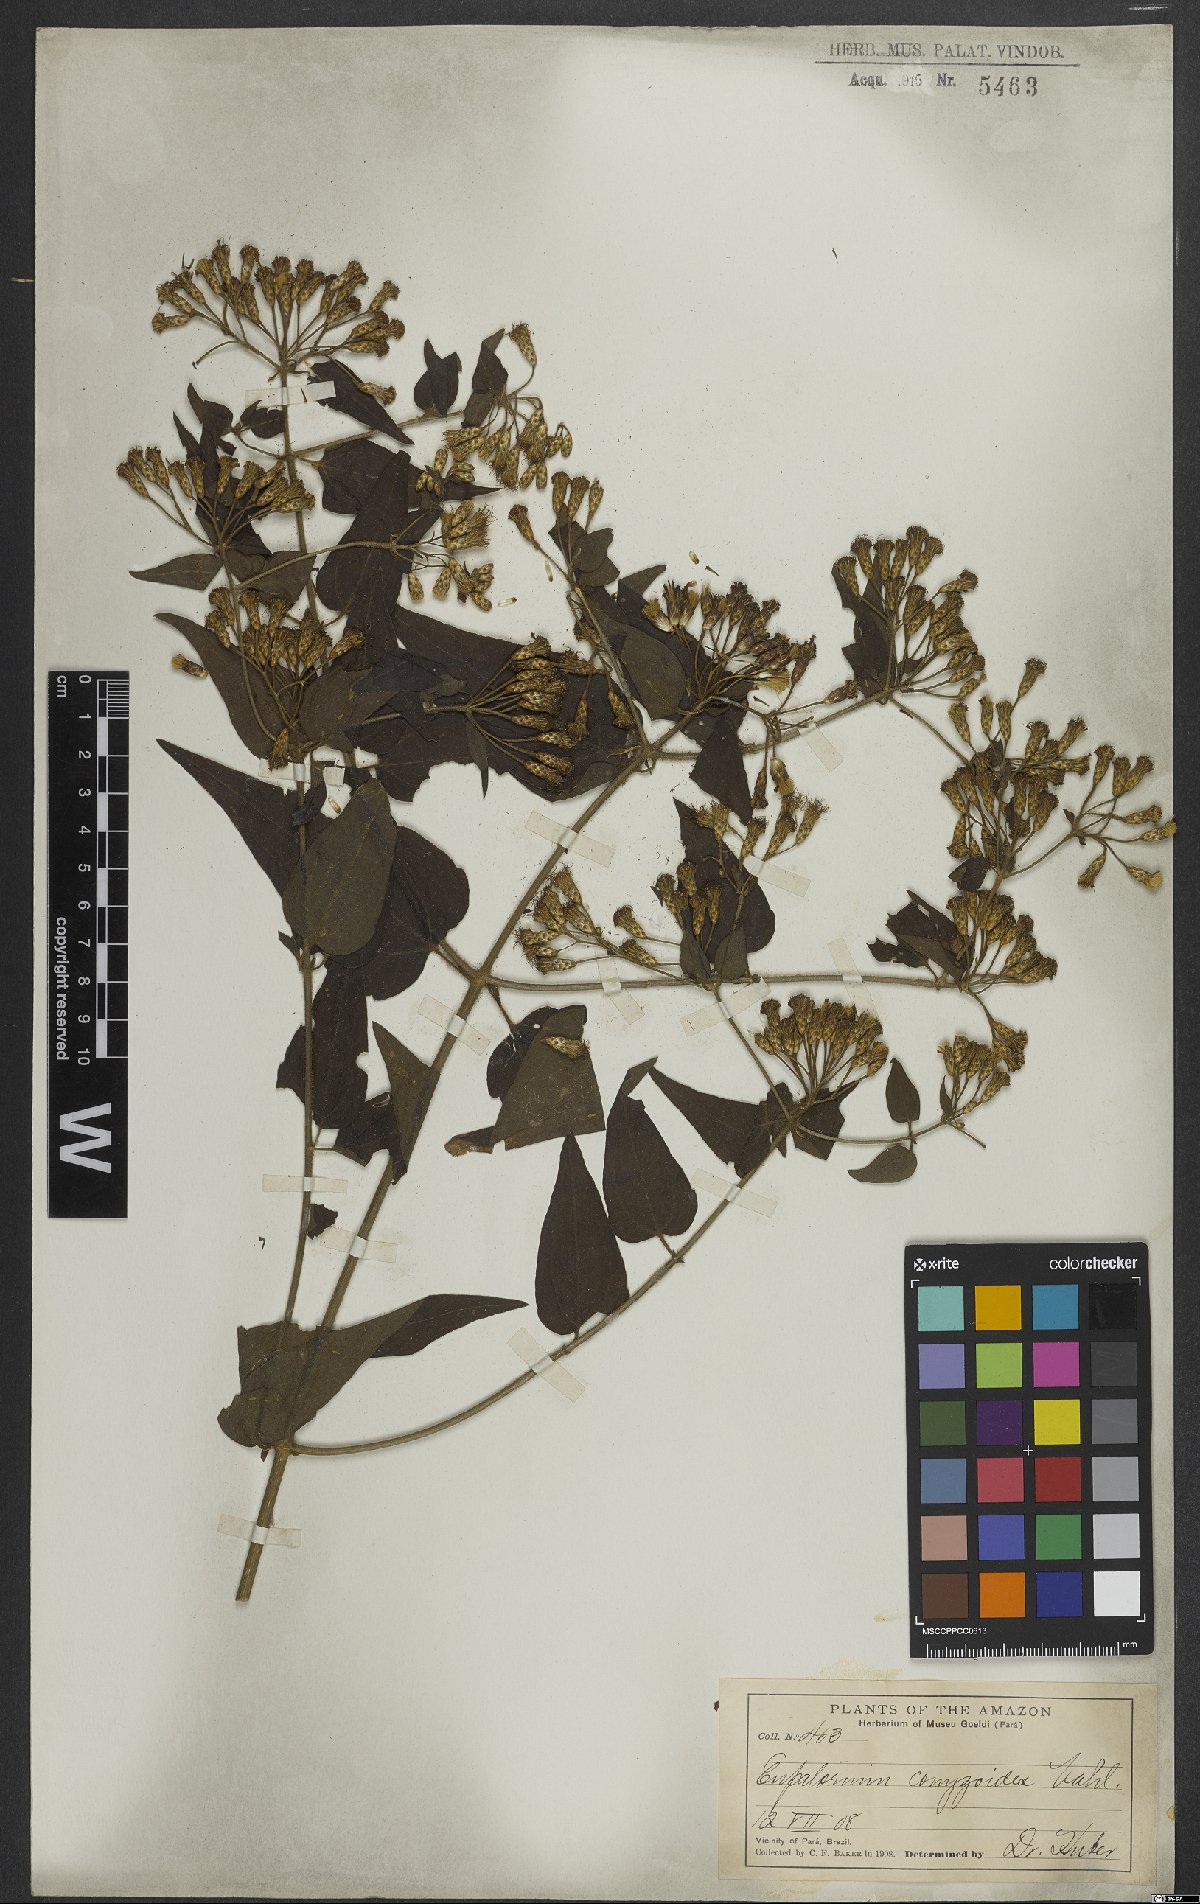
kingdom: Plantae
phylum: Tracheophyta
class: Magnoliopsida
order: Asterales
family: Asteraceae
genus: Chromolaena
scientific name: Chromolaena odorata
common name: Siamweed
